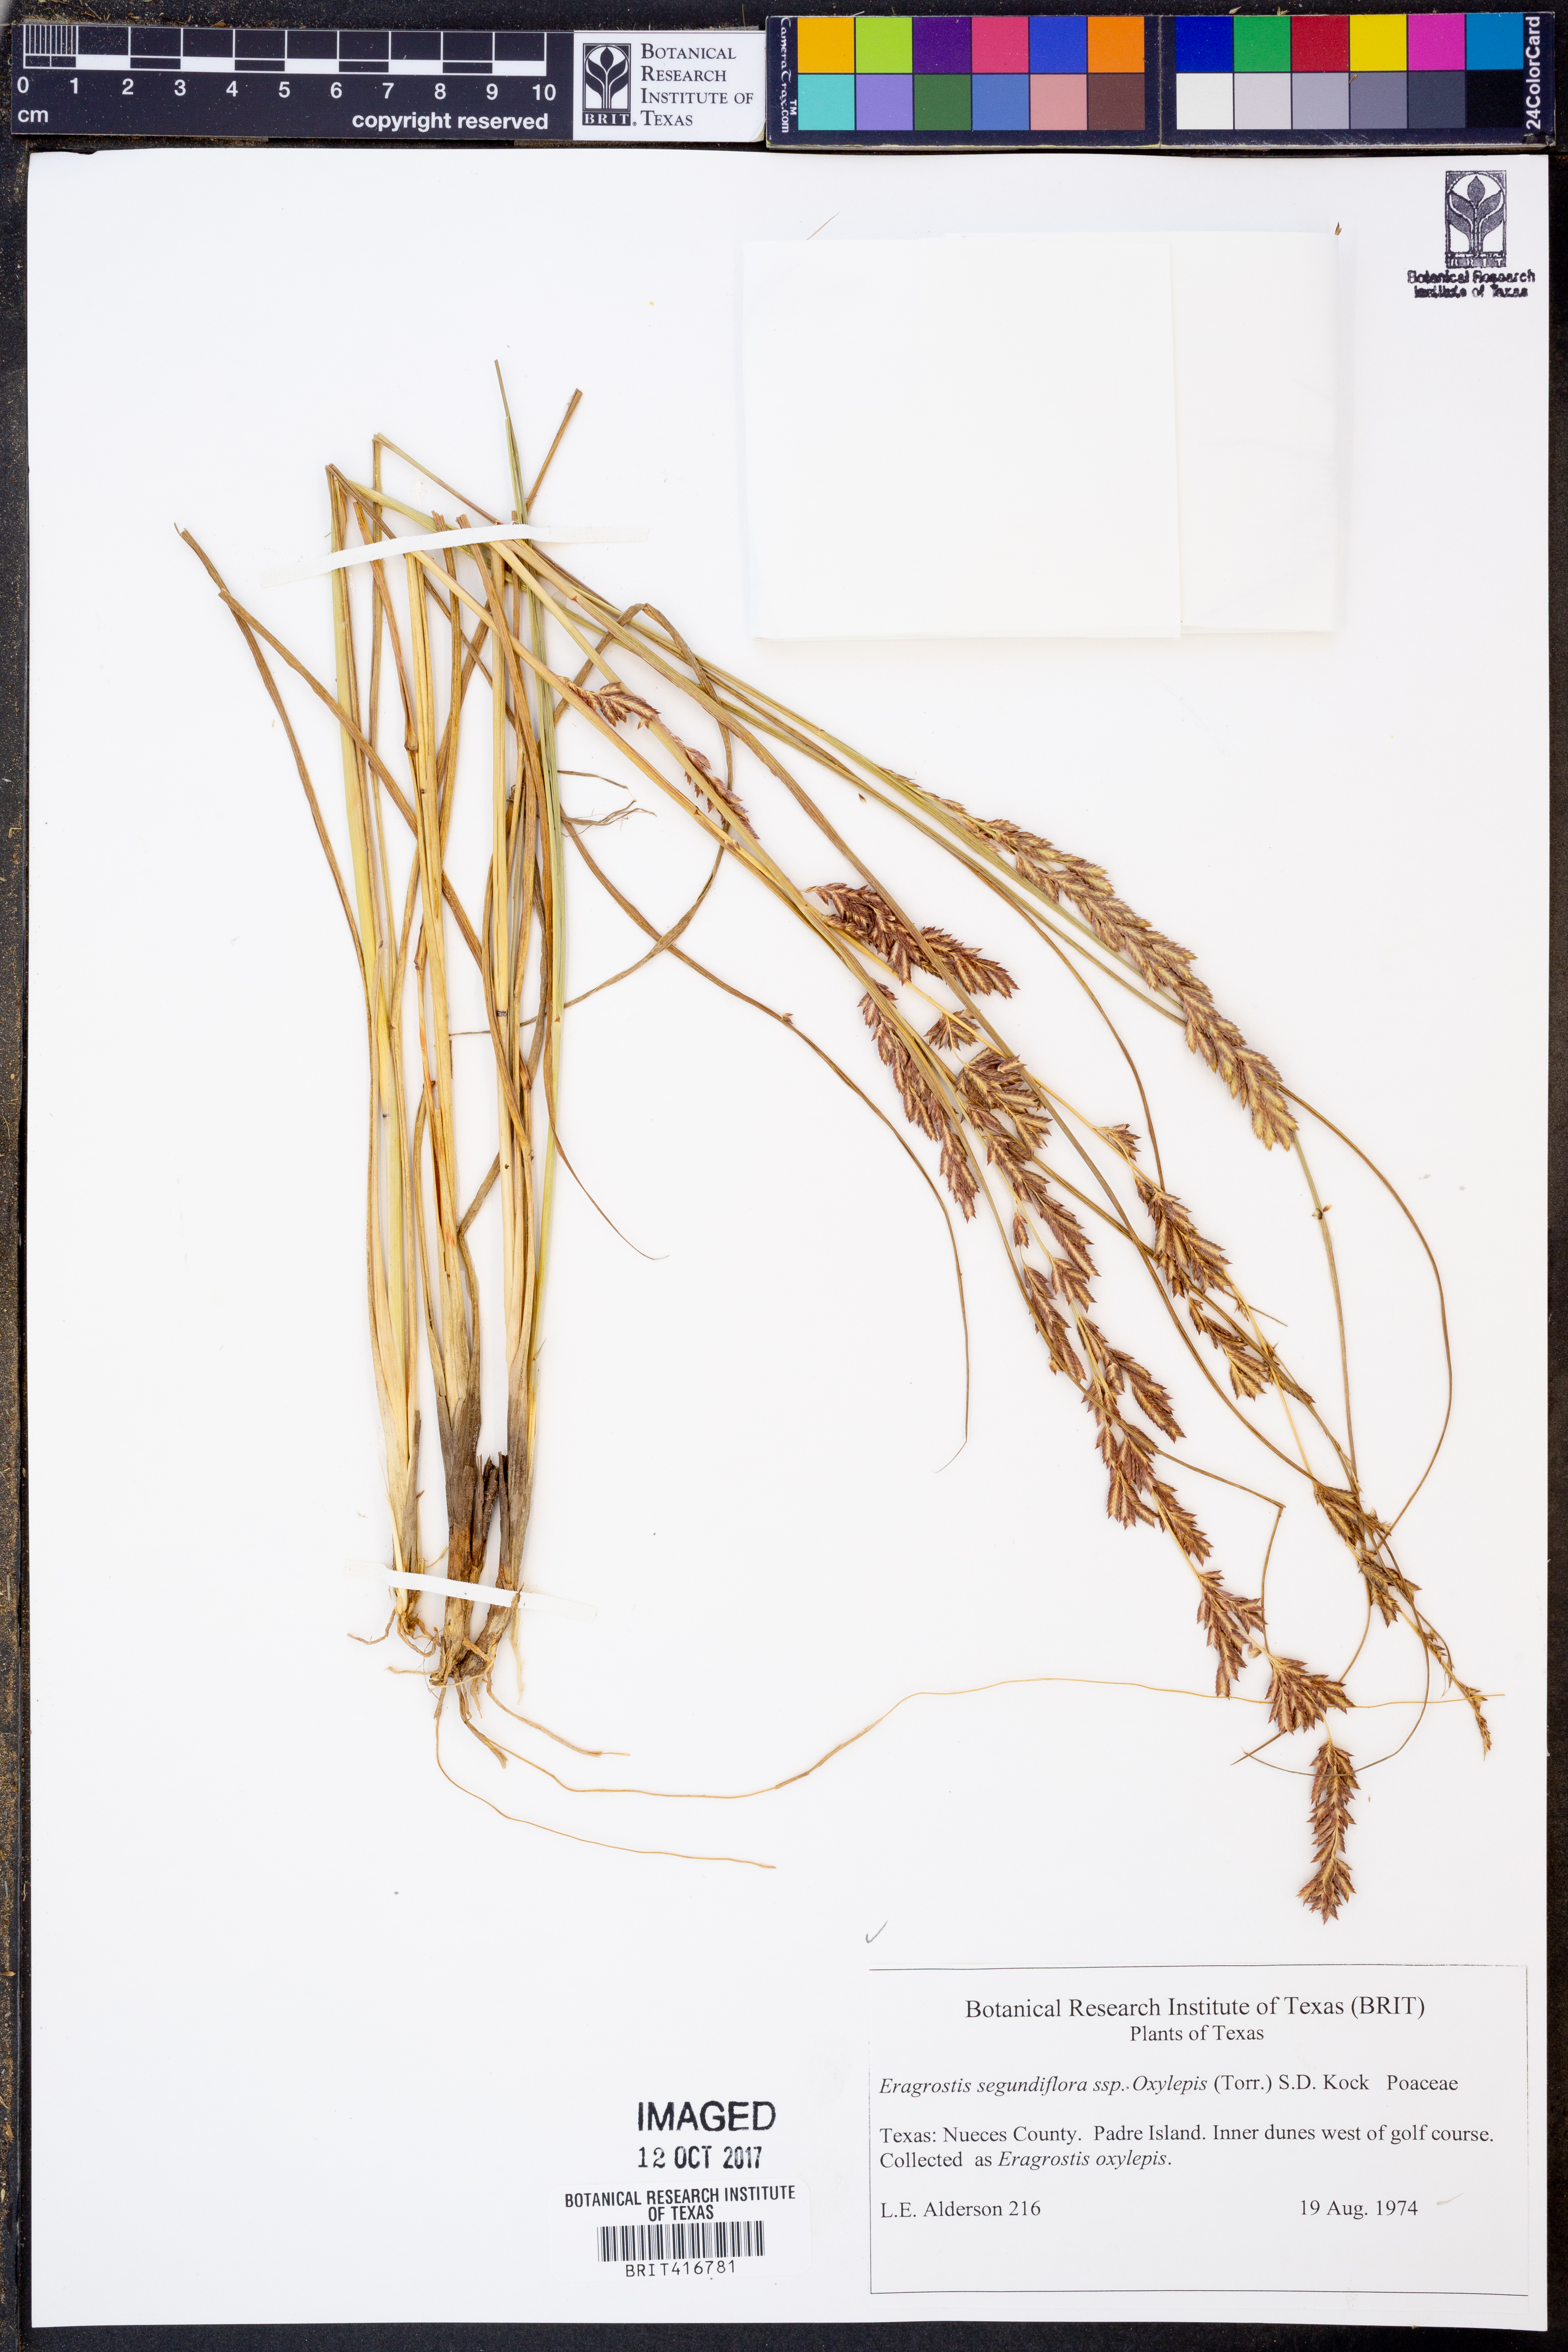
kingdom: Plantae
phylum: Tracheophyta
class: Liliopsida
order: Poales
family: Poaceae
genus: Eragrostis
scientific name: Eragrostis secundiflora
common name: Red love grass
